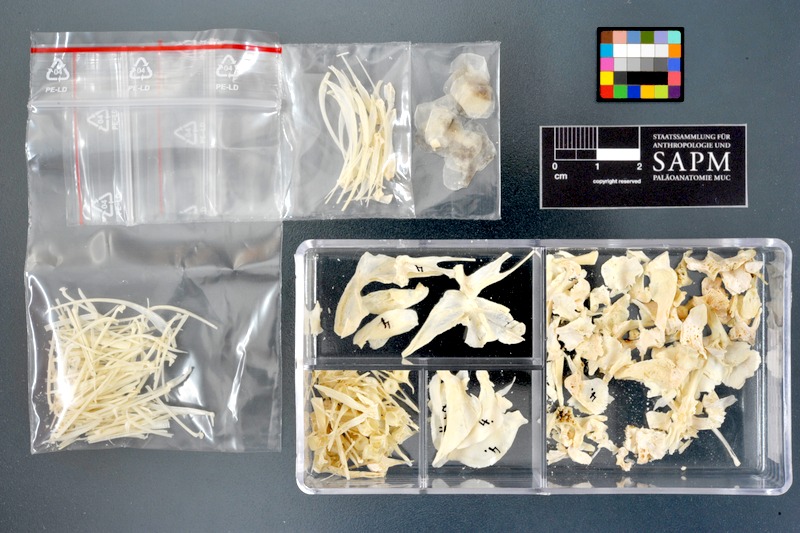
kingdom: Animalia
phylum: Chordata
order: Cypriniformes
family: Cyprinidae
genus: Labeo
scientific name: Labeo coubie
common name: African carp
